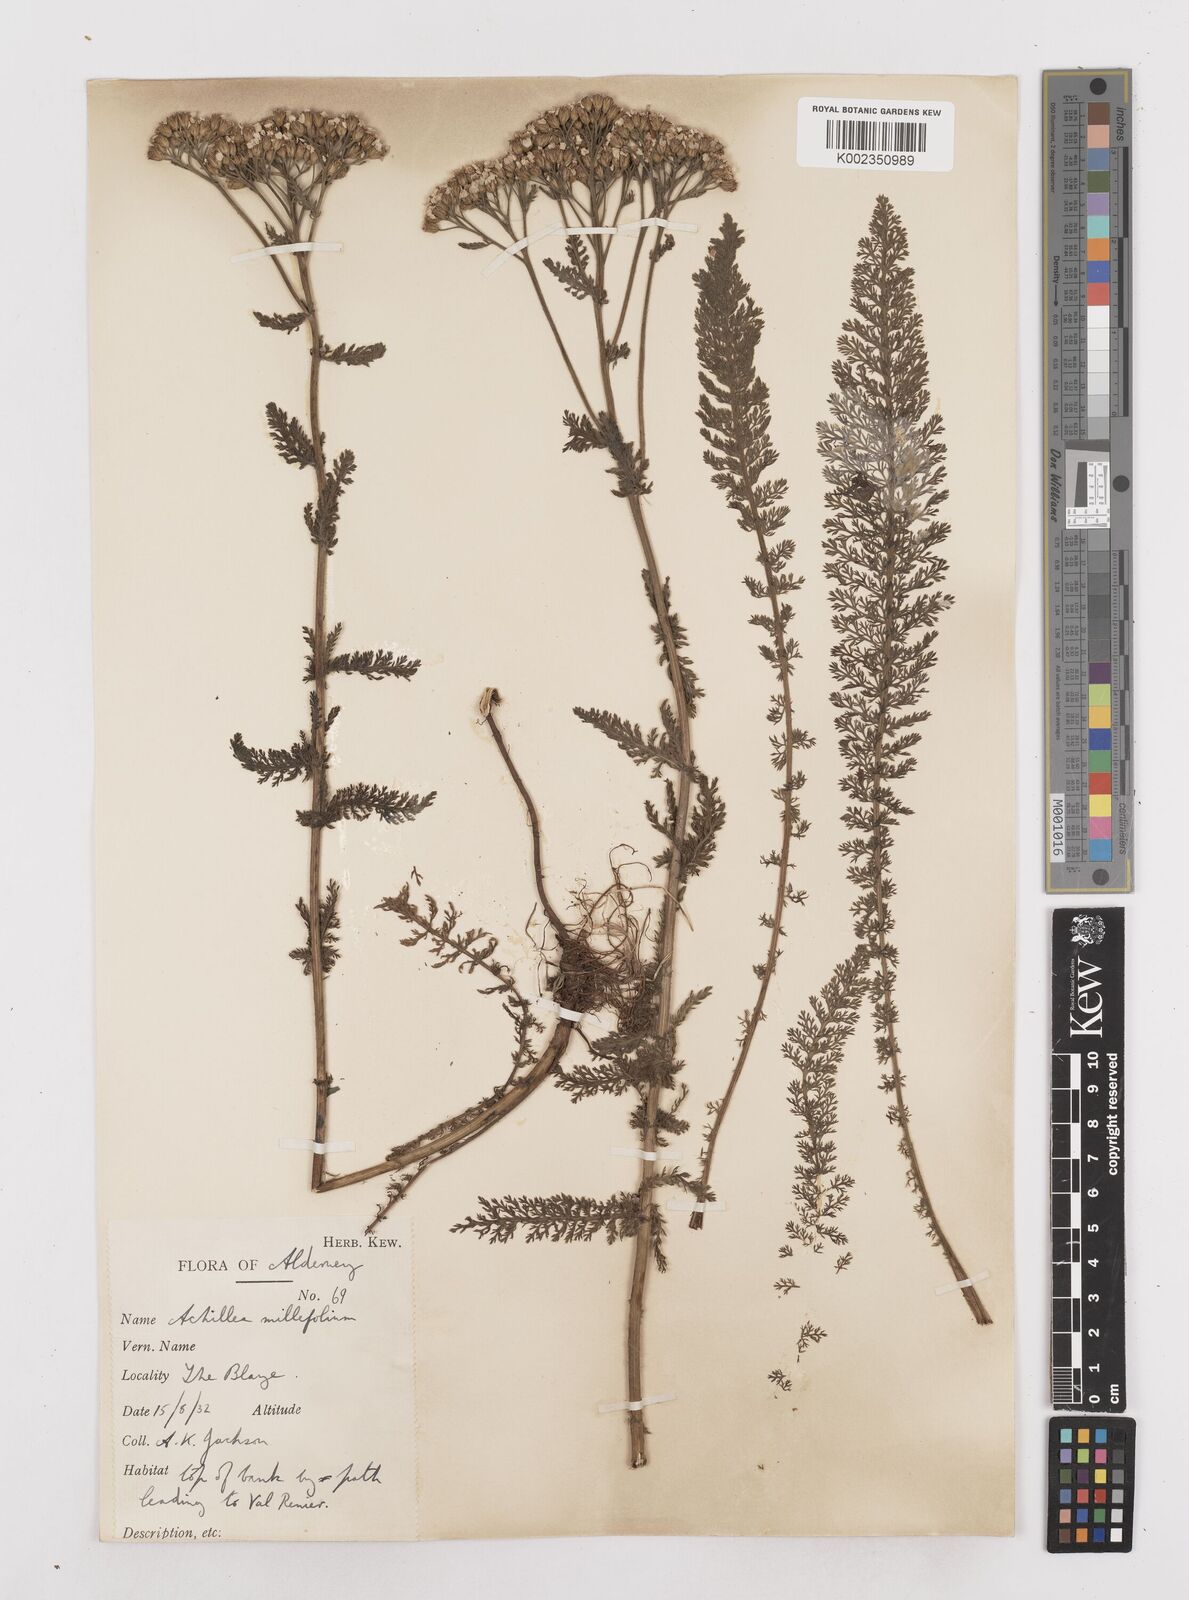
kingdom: Plantae
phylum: Tracheophyta
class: Magnoliopsida
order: Asterales
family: Asteraceae
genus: Achillea
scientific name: Achillea millefolium
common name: Yarrow
